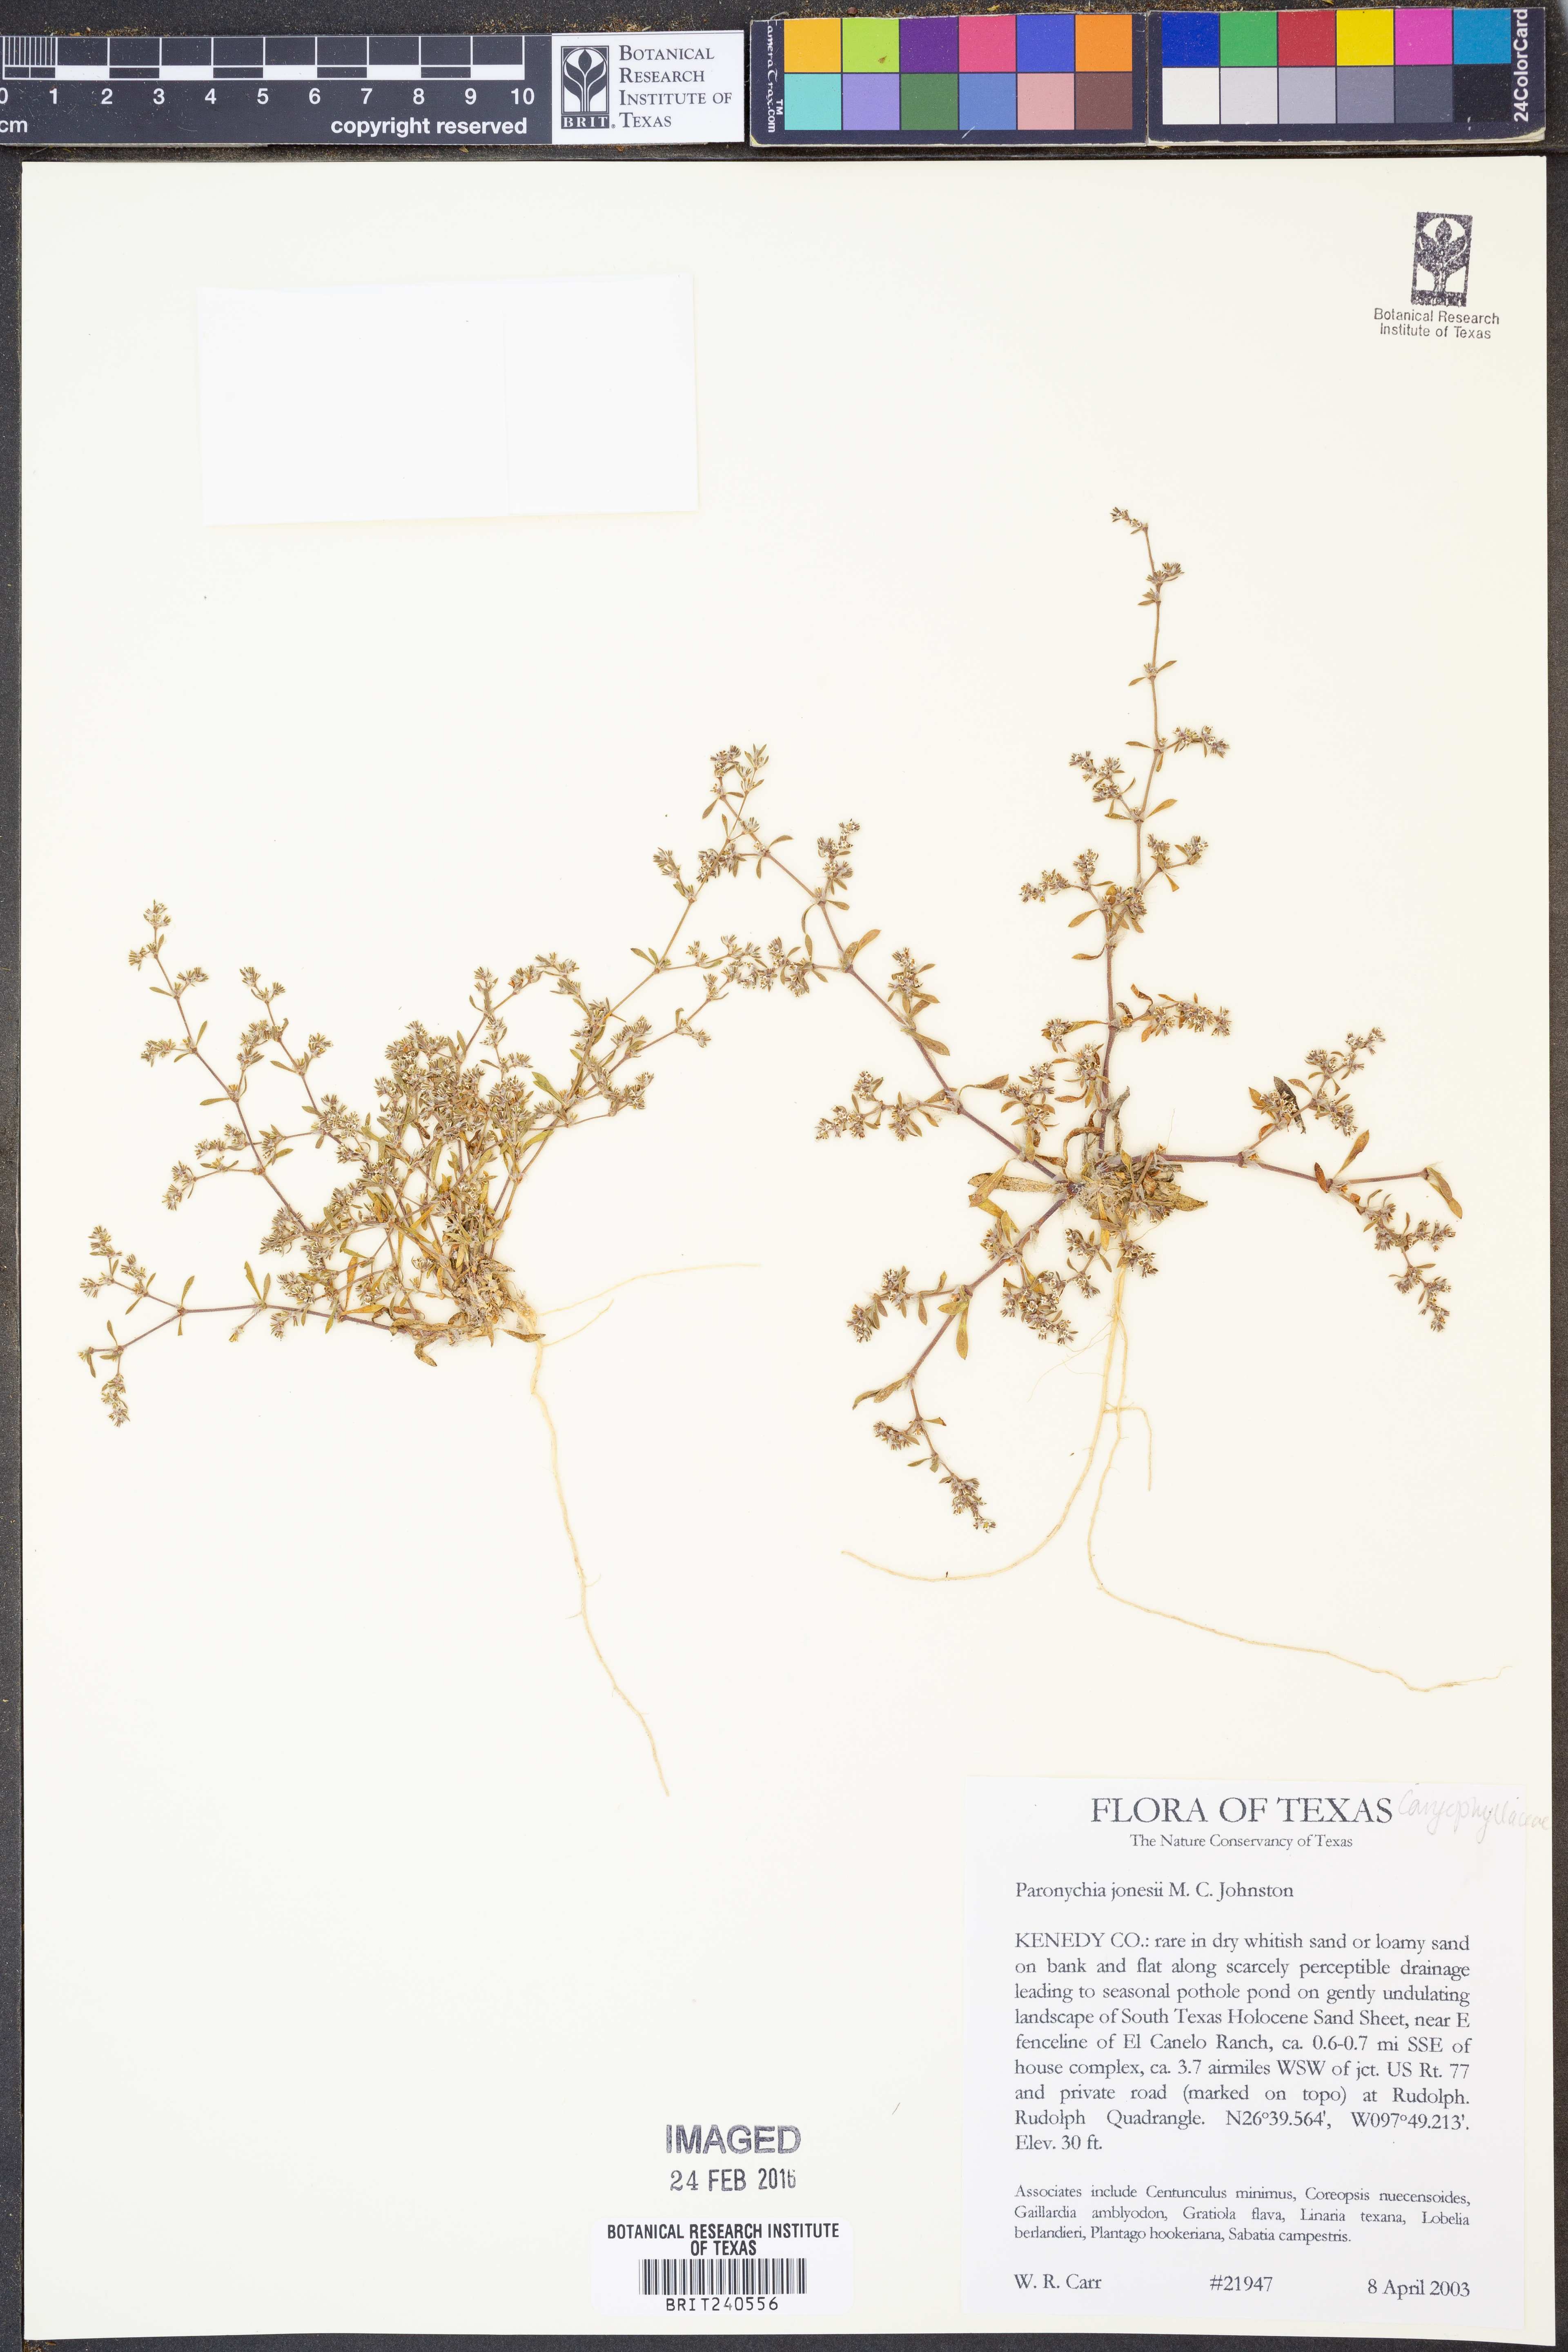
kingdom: Plantae
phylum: Tracheophyta
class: Magnoliopsida
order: Caryophyllales
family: Caryophyllaceae
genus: Paronychia
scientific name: Paronychia jonesii
